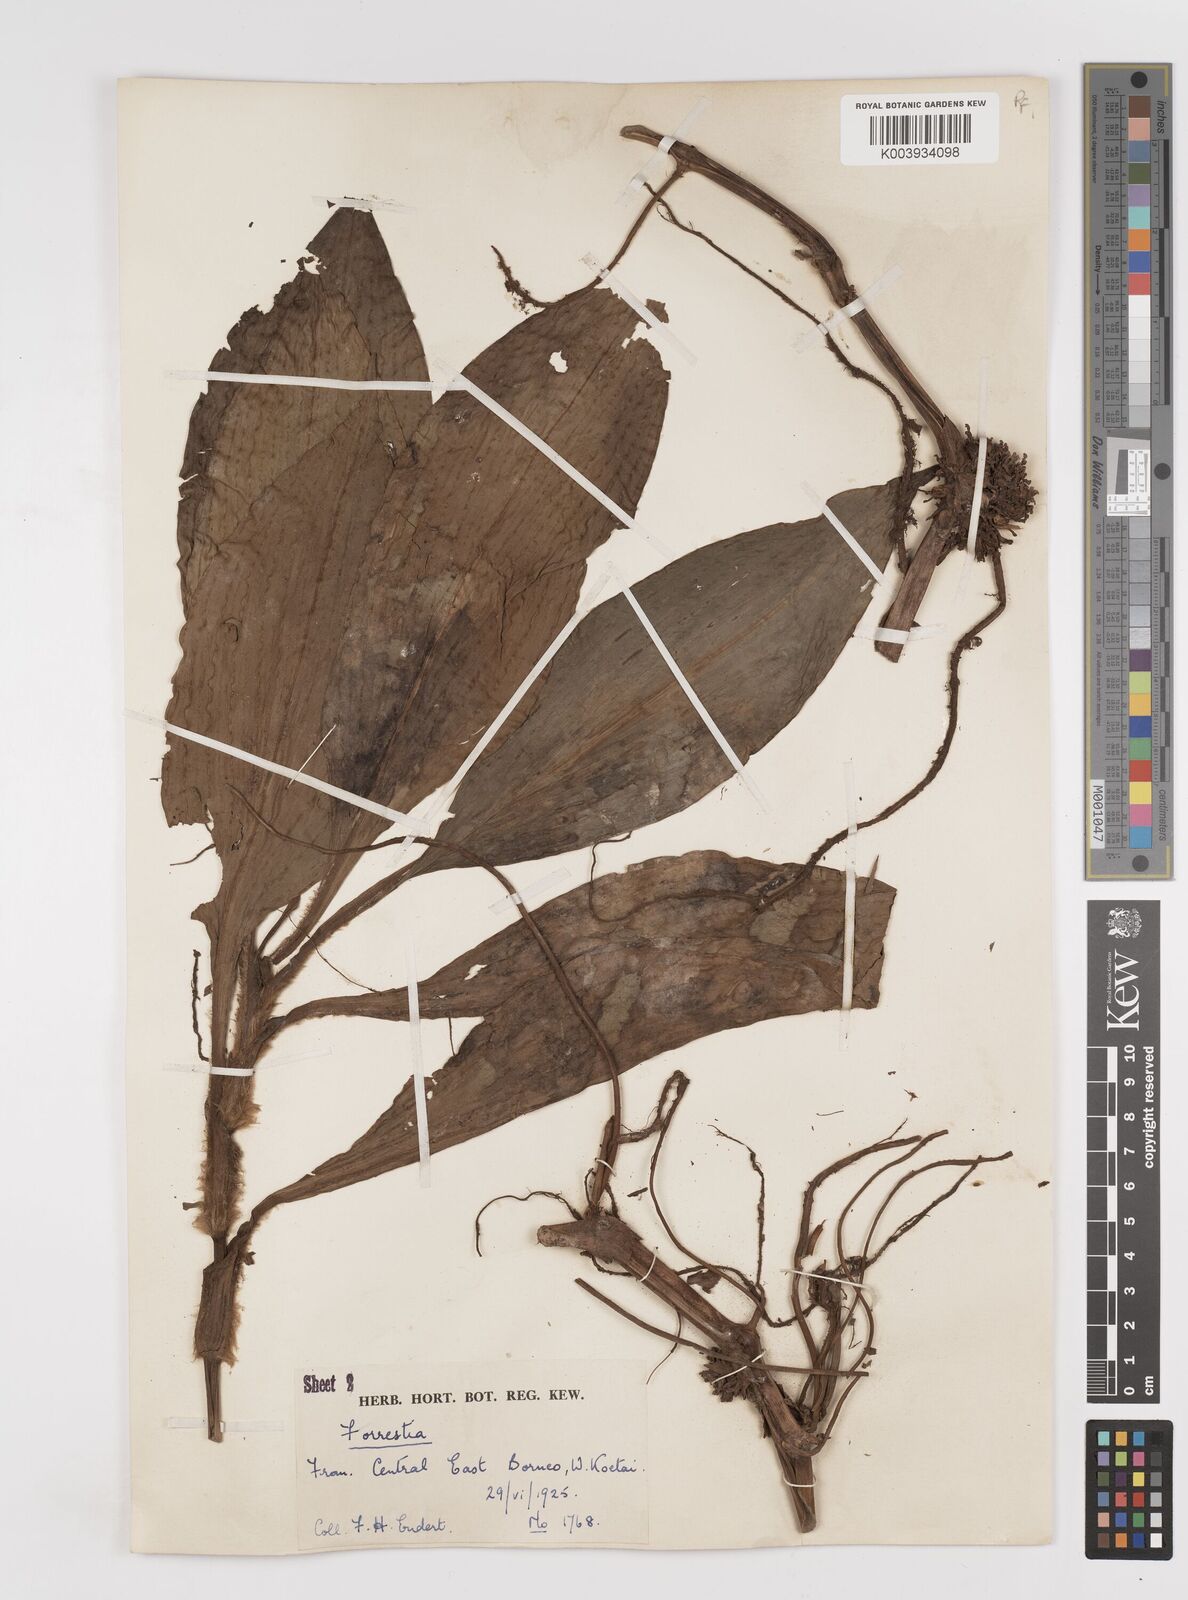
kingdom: Plantae
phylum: Tracheophyta
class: Liliopsida
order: Commelinales
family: Commelinaceae
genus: Amischotolype
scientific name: Amischotolype
